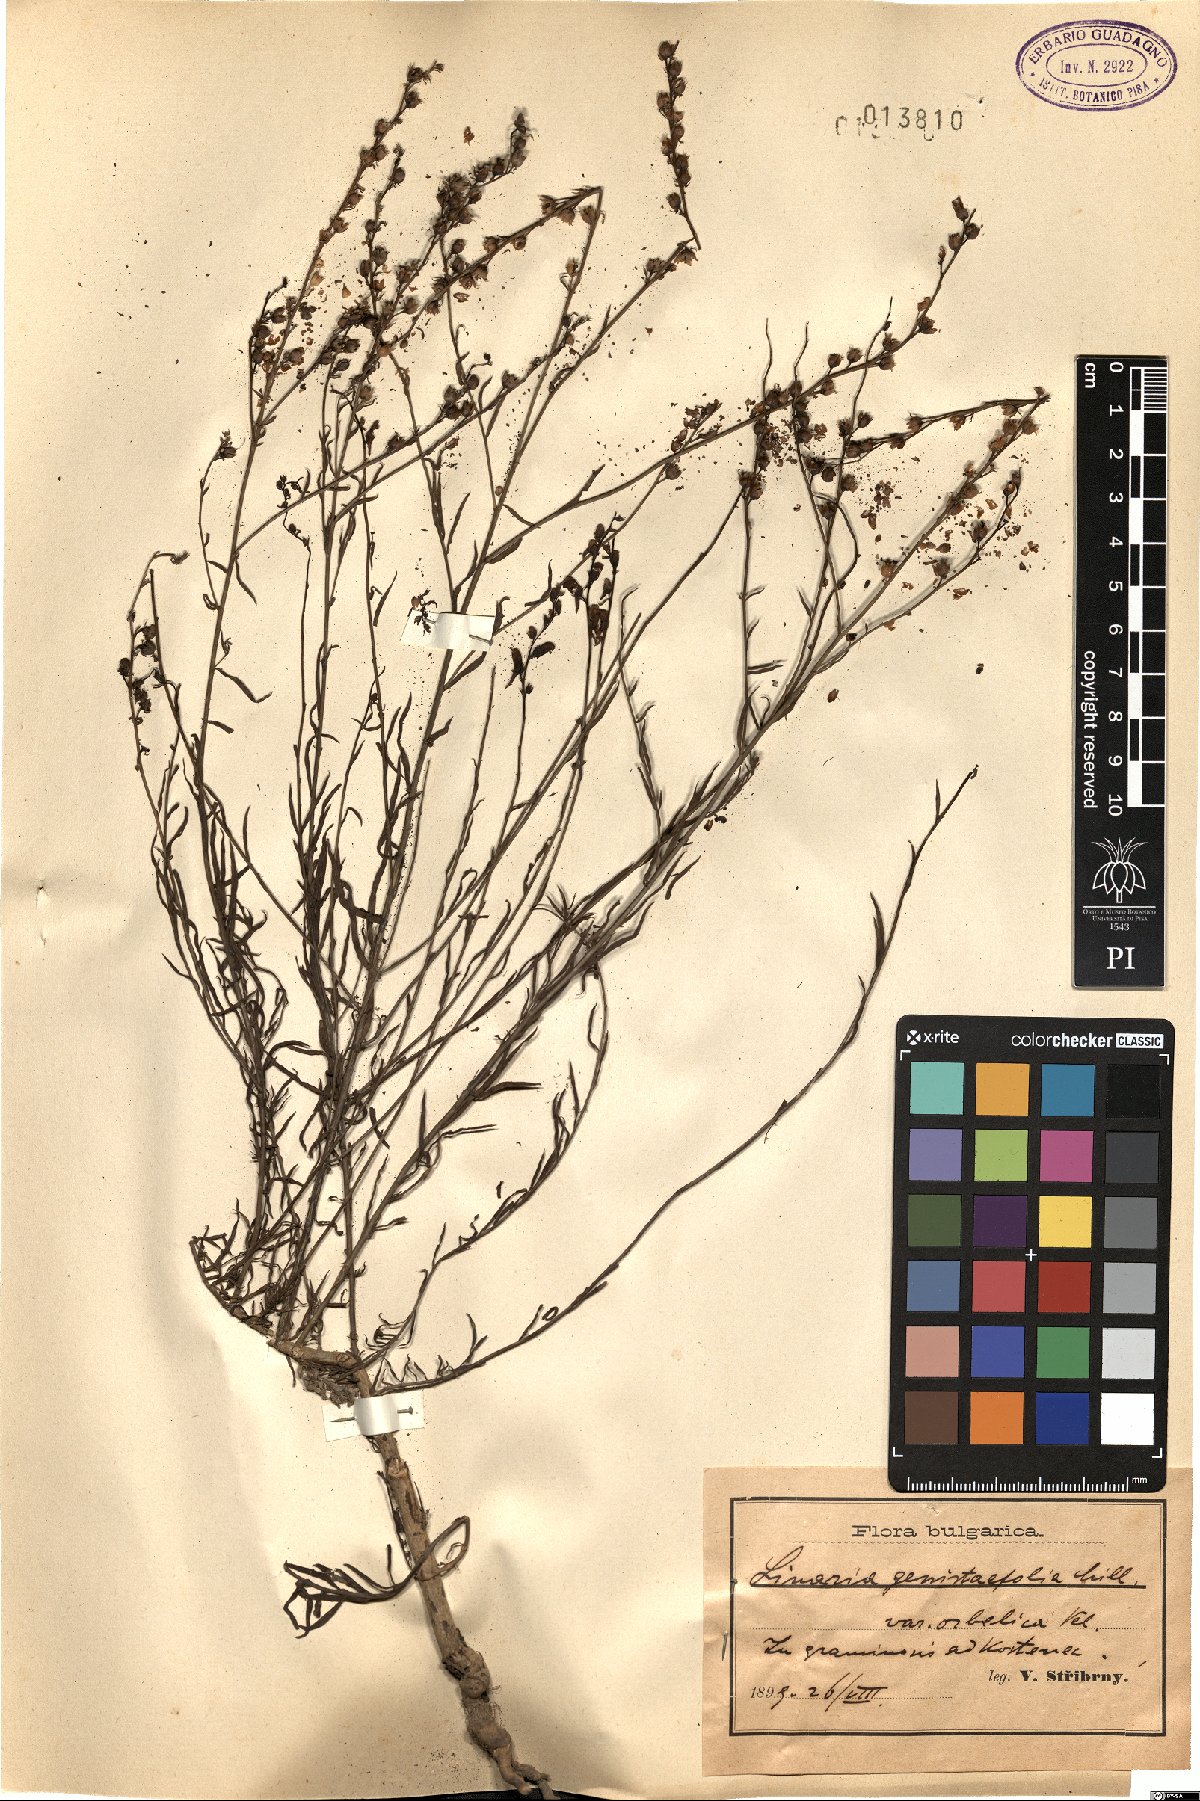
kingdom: Plantae
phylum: Tracheophyta
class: Magnoliopsida
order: Lamiales
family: Plantaginaceae
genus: Linaria
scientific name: Linaria genistifolia
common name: Broomleaf toadflax
